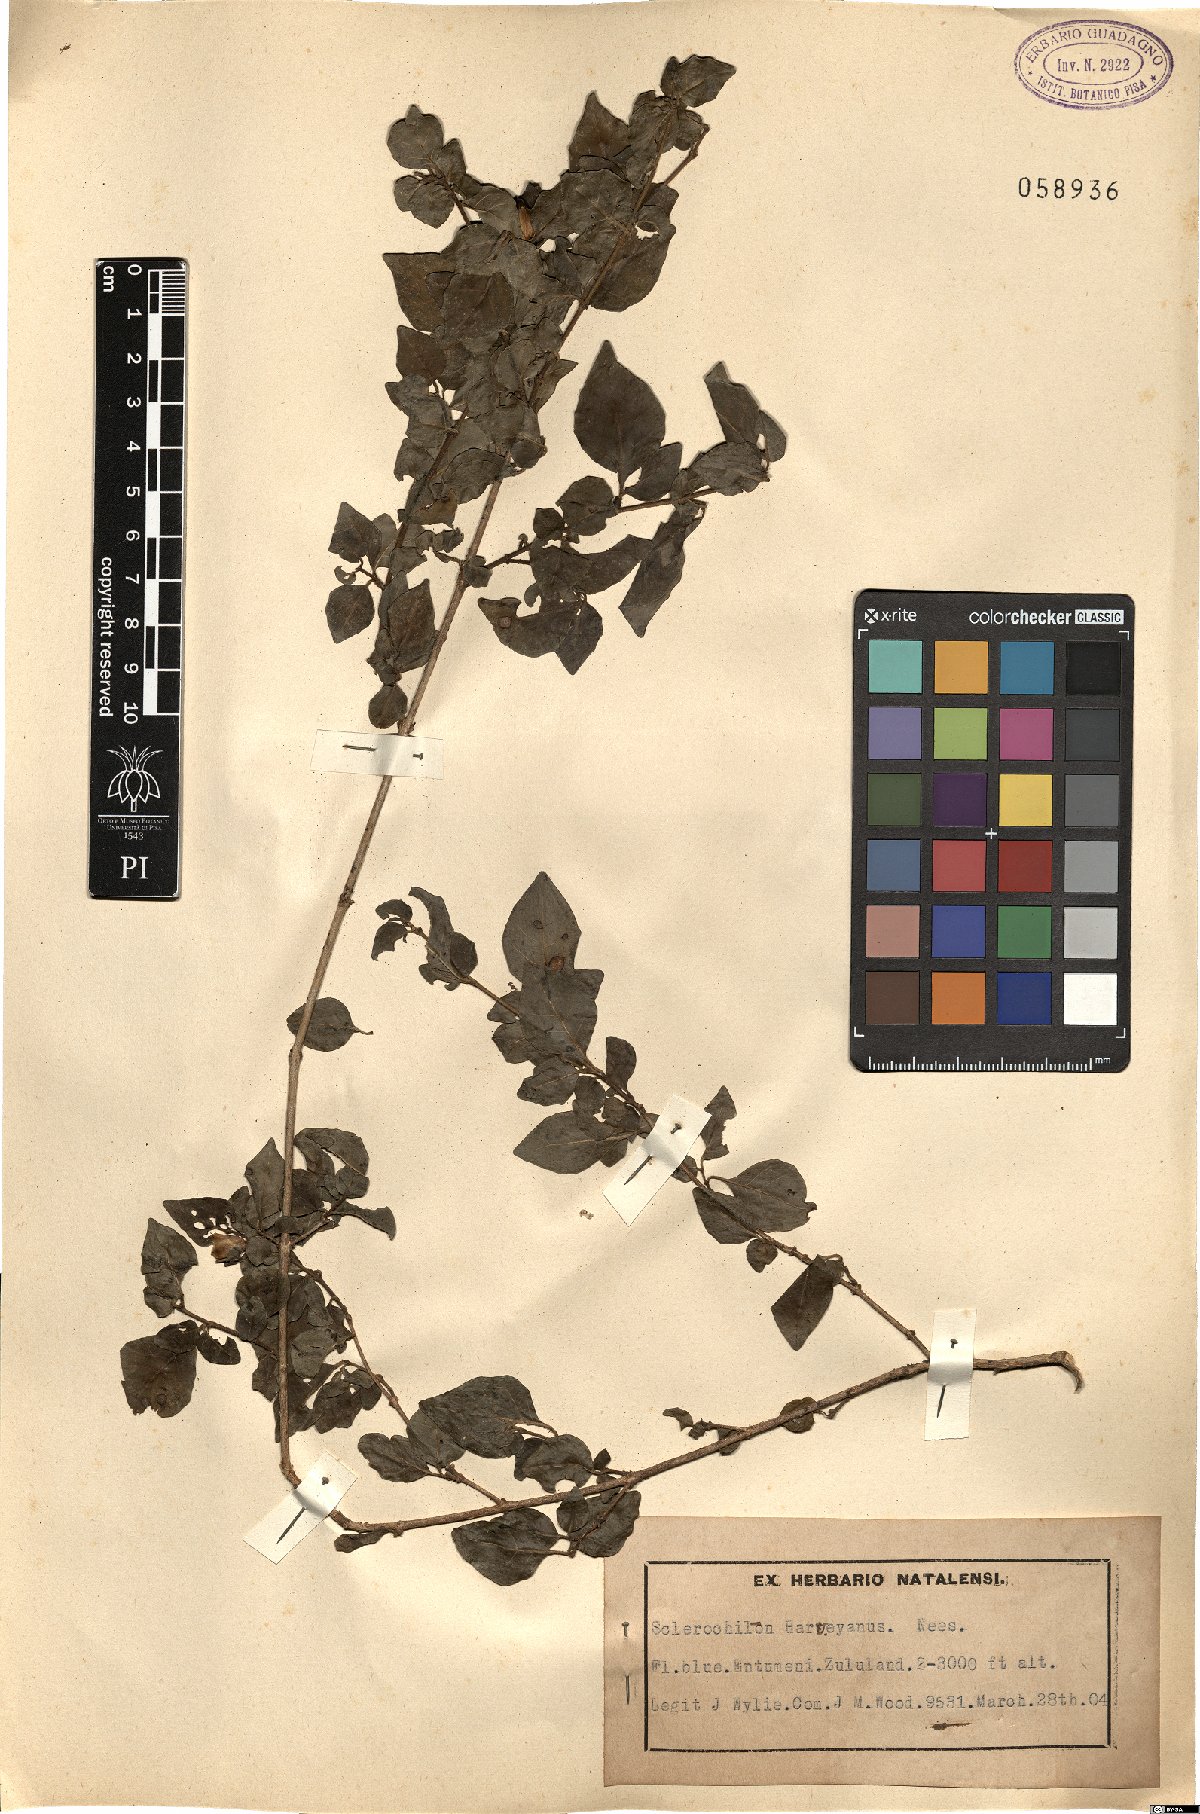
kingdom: Plantae
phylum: Tracheophyta
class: Magnoliopsida
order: Lamiales
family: Acanthaceae
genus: Sclerochiton
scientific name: Sclerochiton harveyanus
